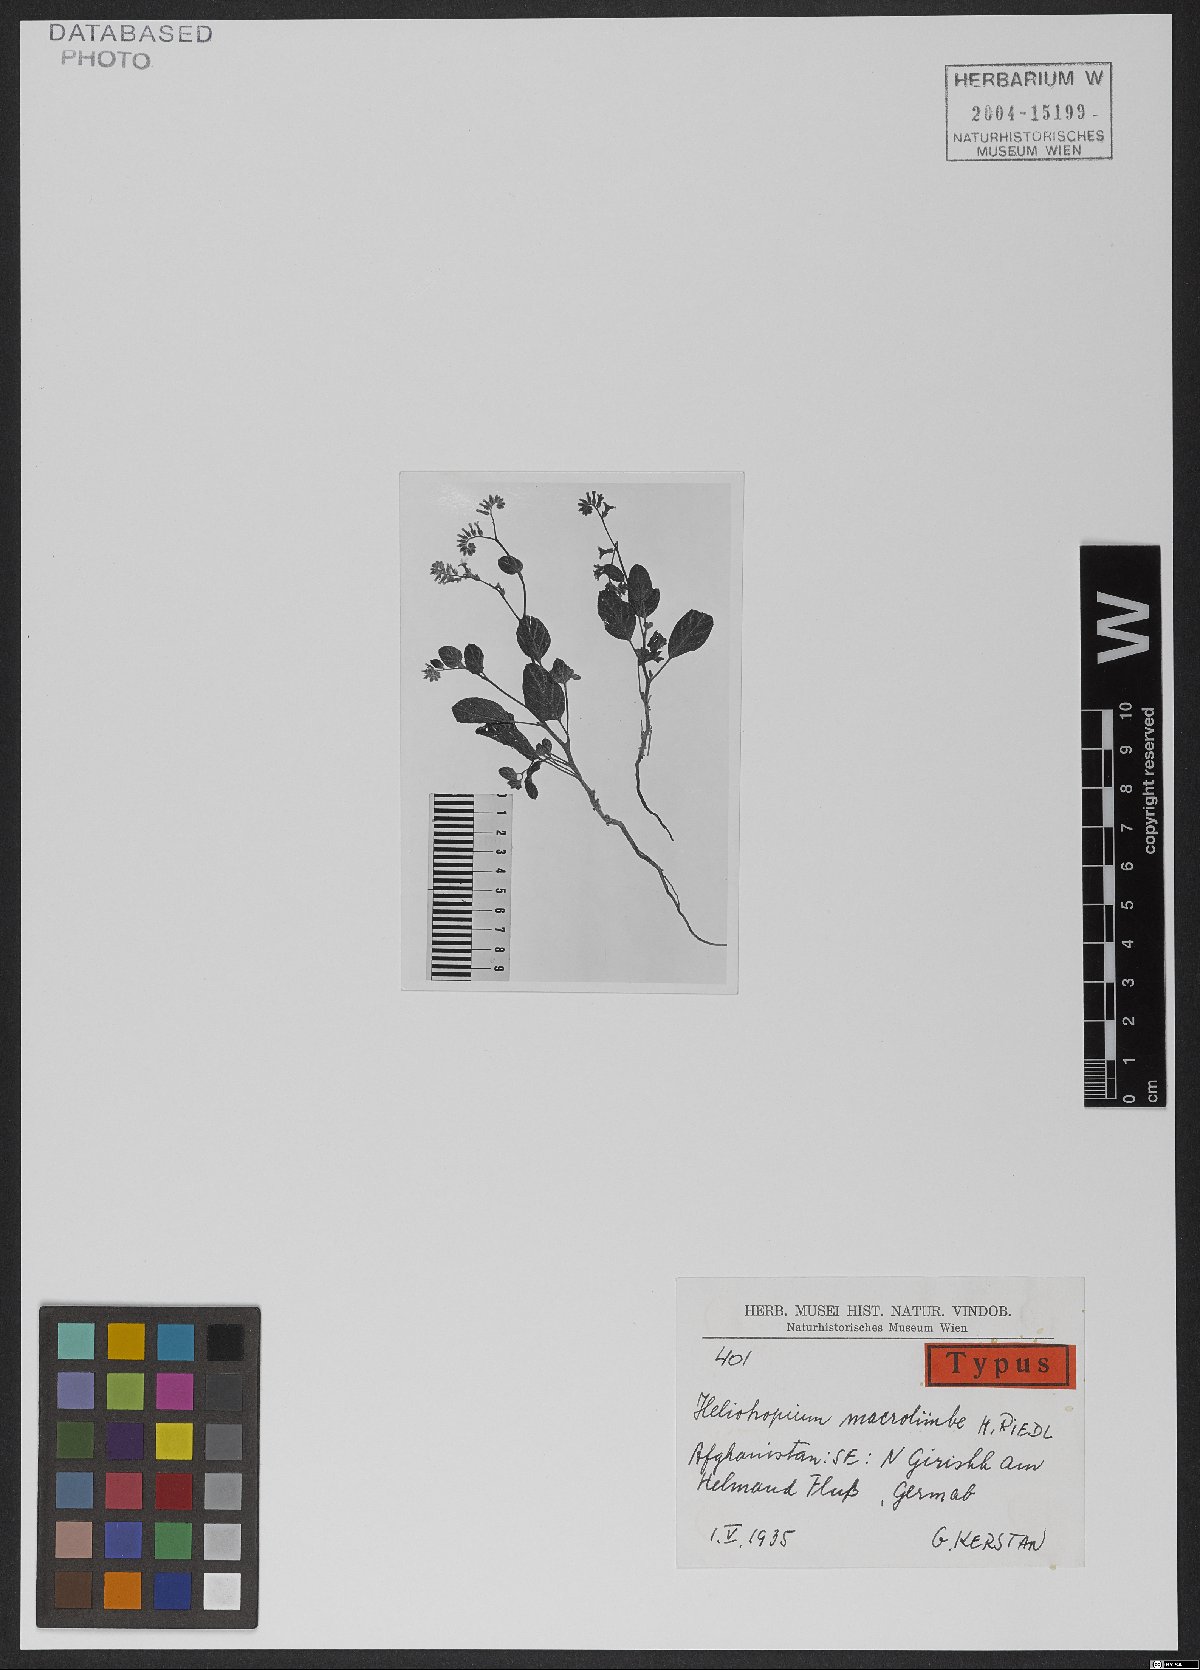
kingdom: Plantae
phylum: Tracheophyta
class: Magnoliopsida
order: Boraginales
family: Heliotropiaceae
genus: Heliotropium
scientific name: Heliotropium macrolimbe
